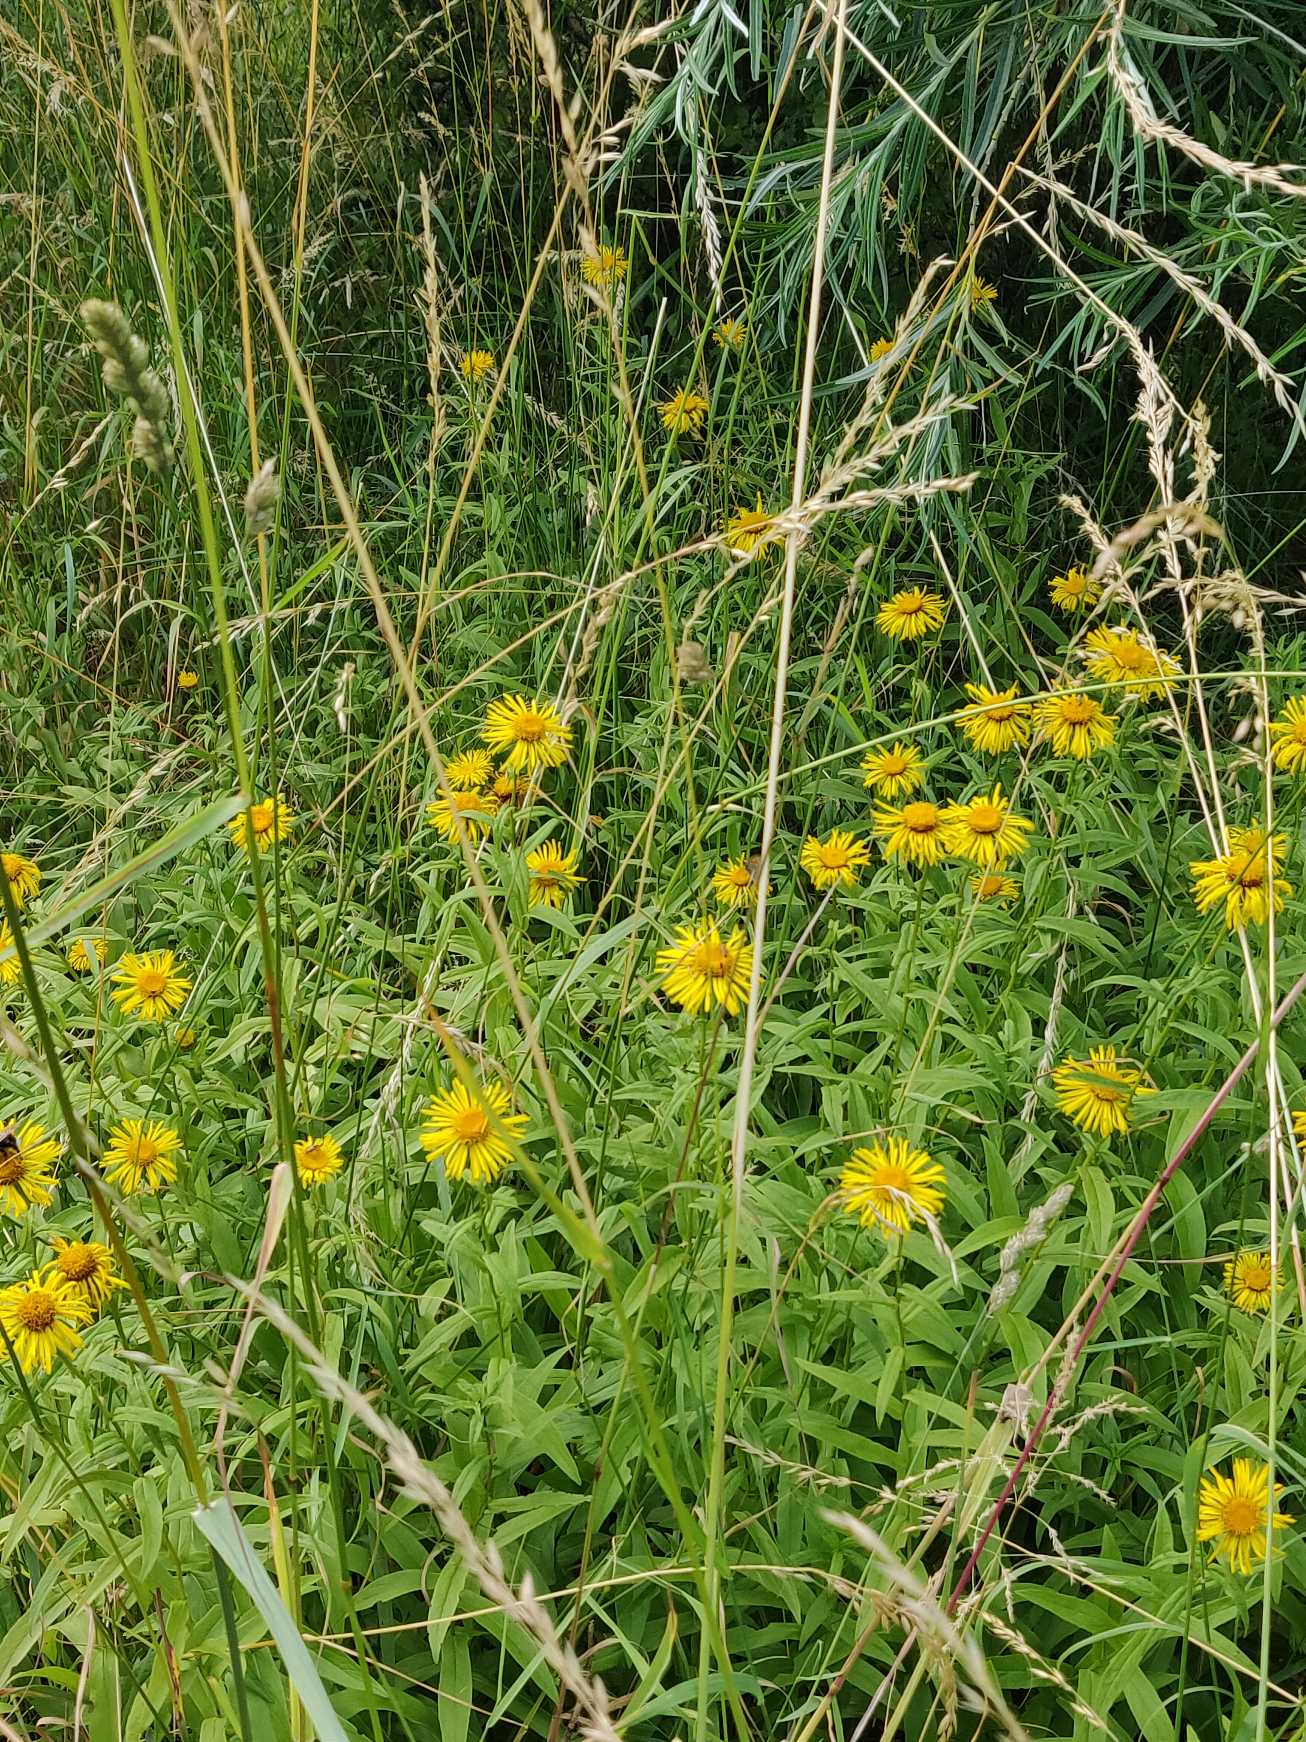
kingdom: Plantae
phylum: Tracheophyta
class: Magnoliopsida
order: Asterales
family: Asteraceae
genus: Pentanema
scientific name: Pentanema salicinum
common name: Pile-alant
